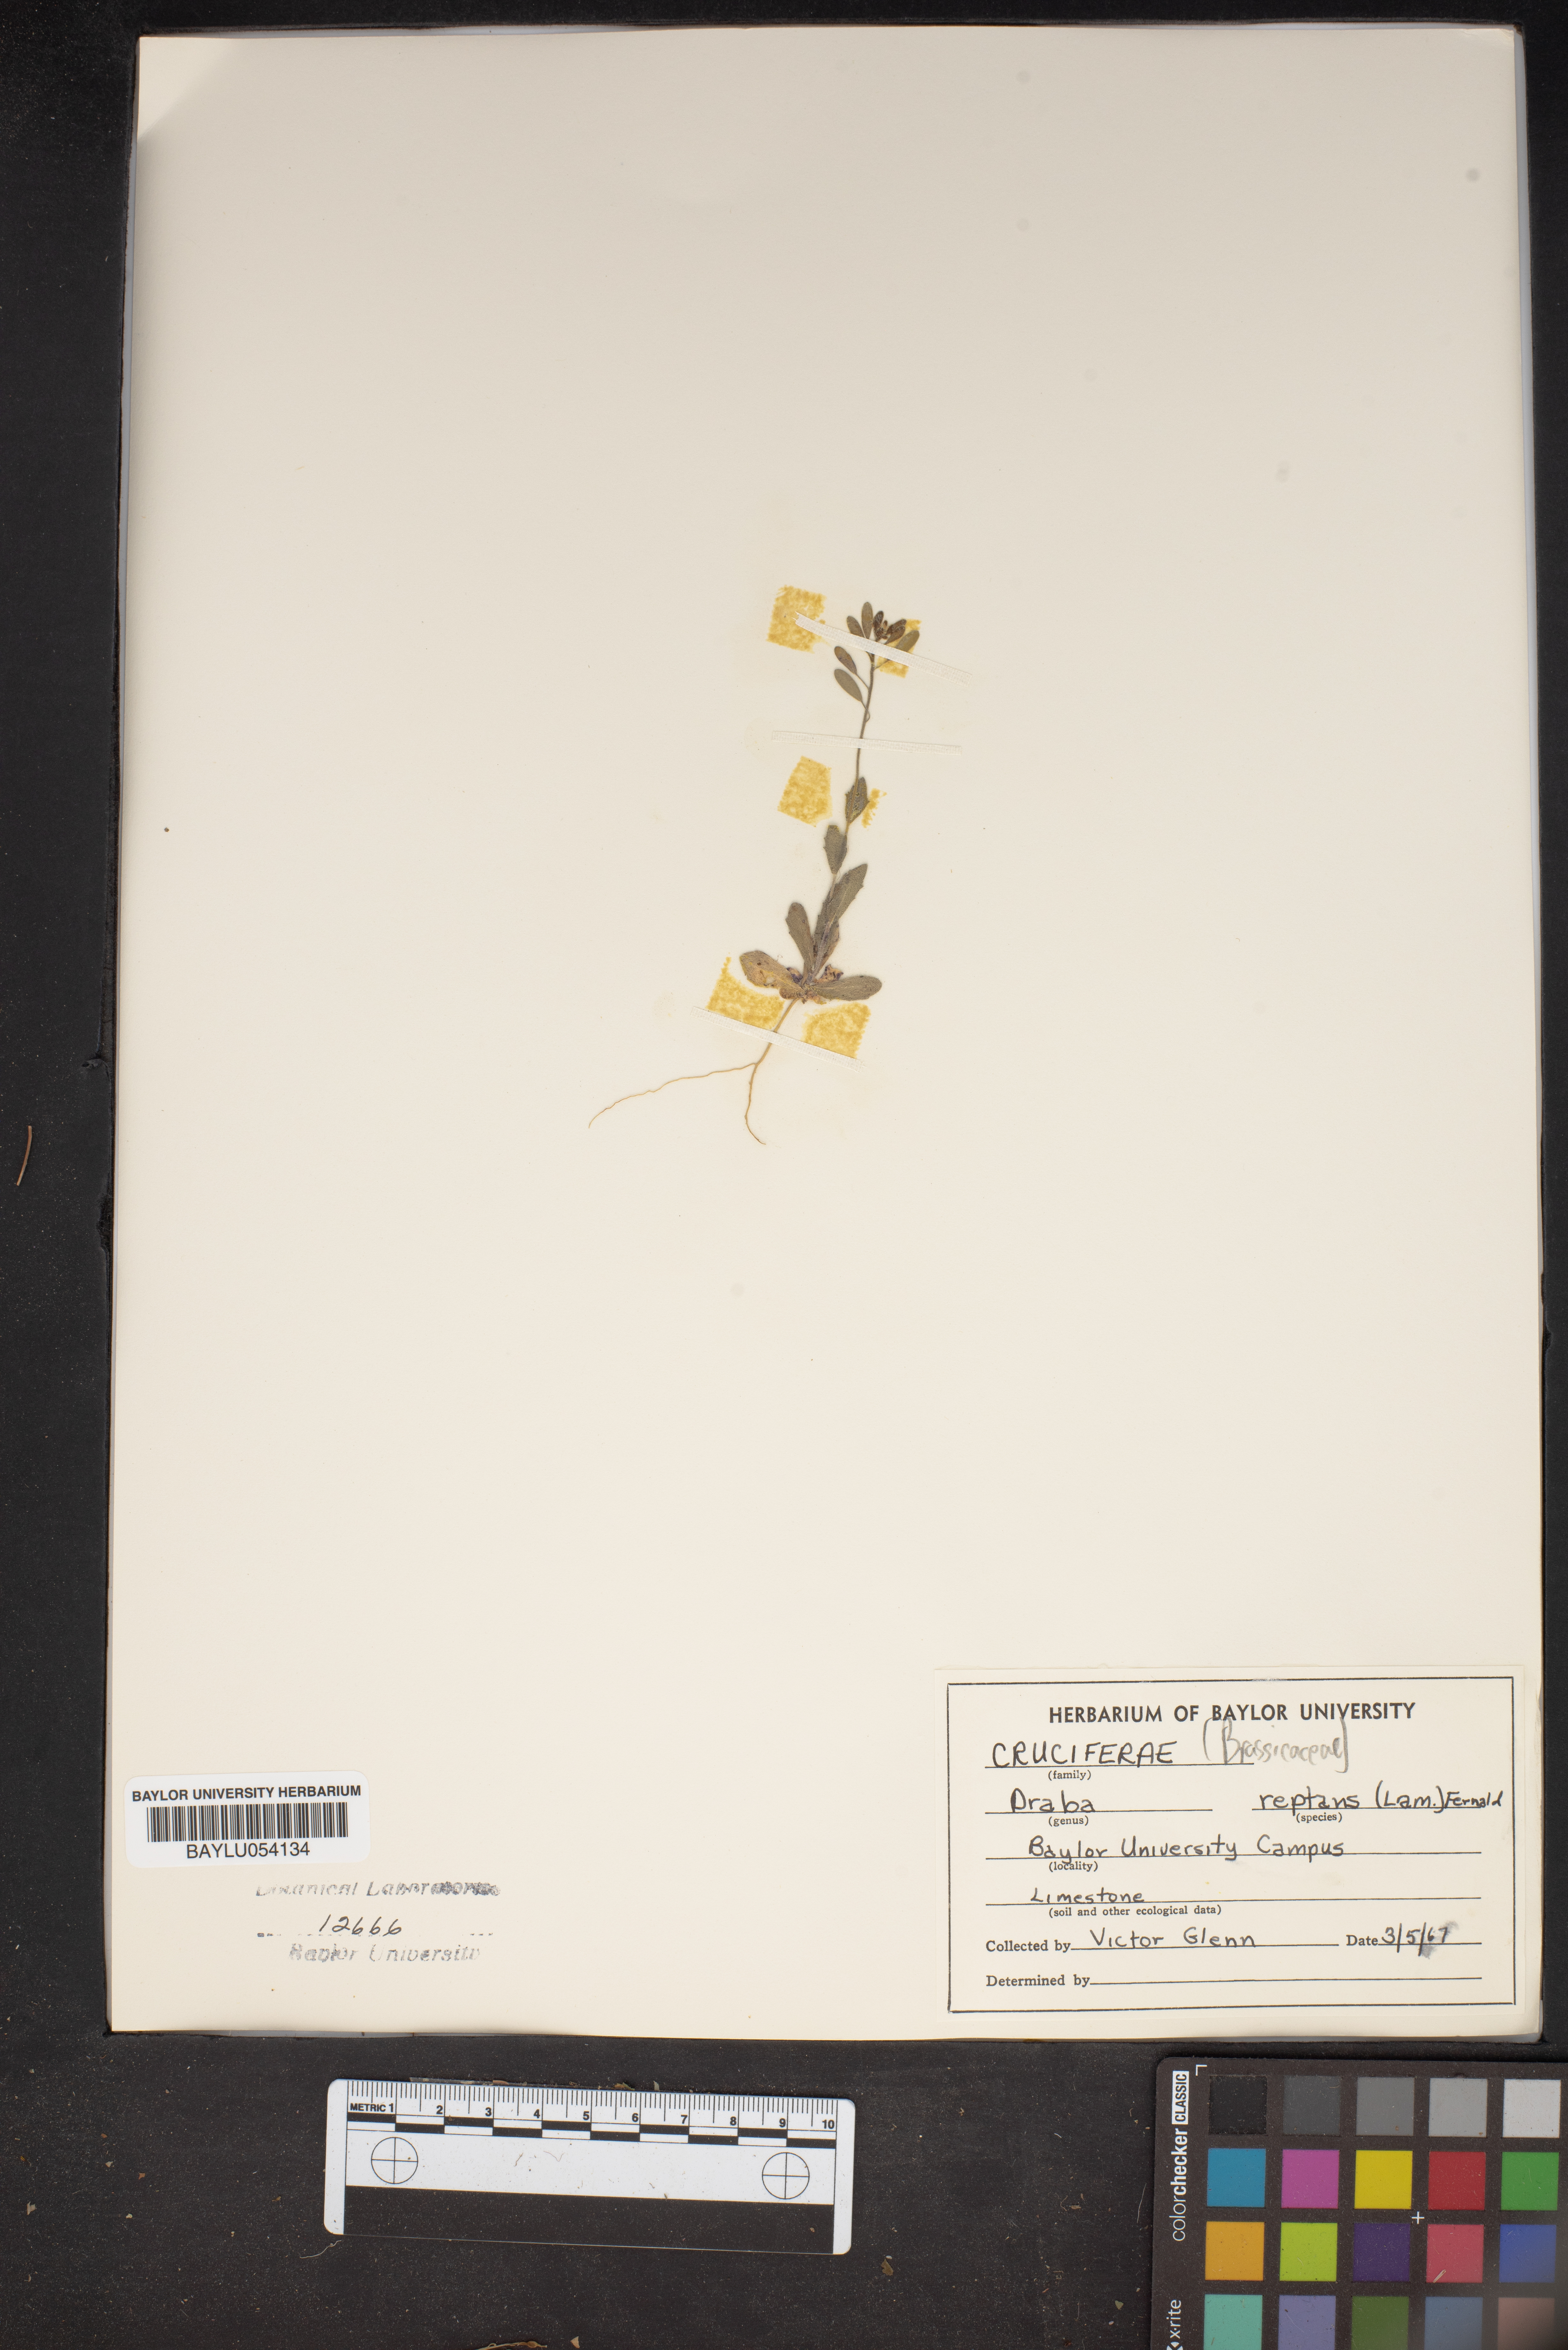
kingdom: Plantae
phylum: Tracheophyta
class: Magnoliopsida
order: Brassicales
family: Brassicaceae
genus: Tomostima
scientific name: Tomostima reptans
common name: Carolina draba
